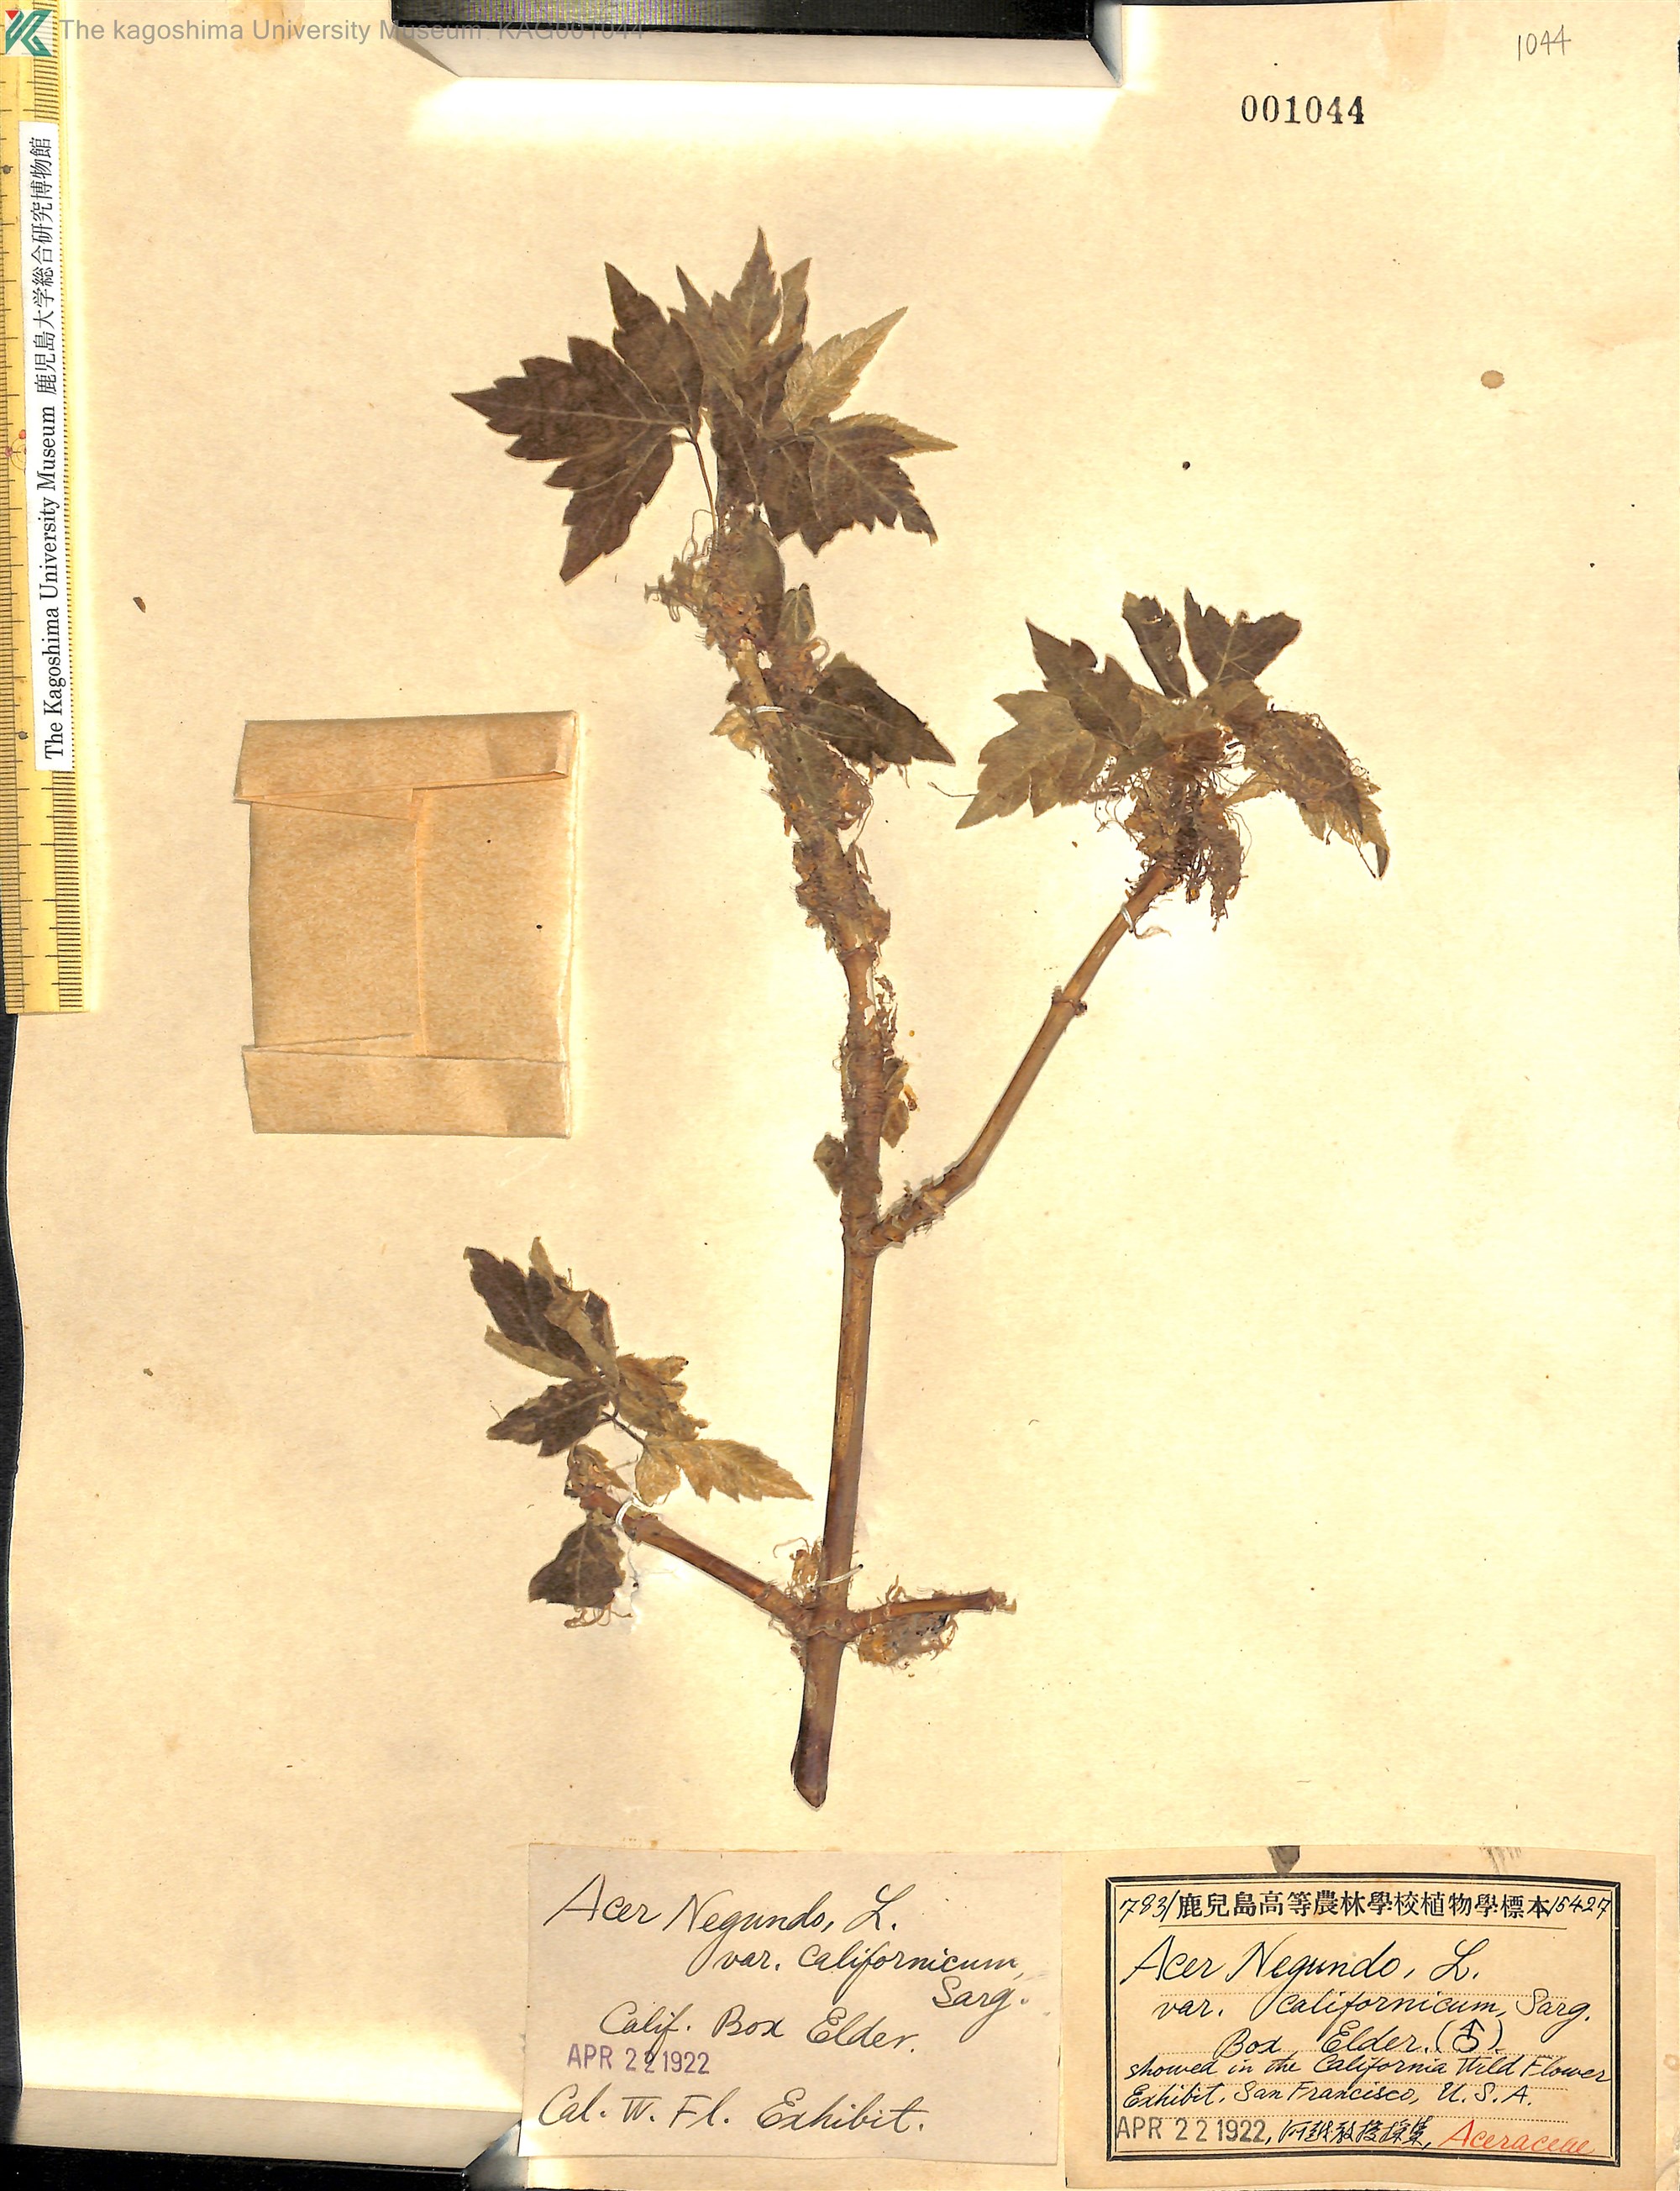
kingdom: Plantae
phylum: Tracheophyta
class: Magnoliopsida
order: Sapindales
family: Sapindaceae
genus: Acer
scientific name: Acer negundo
